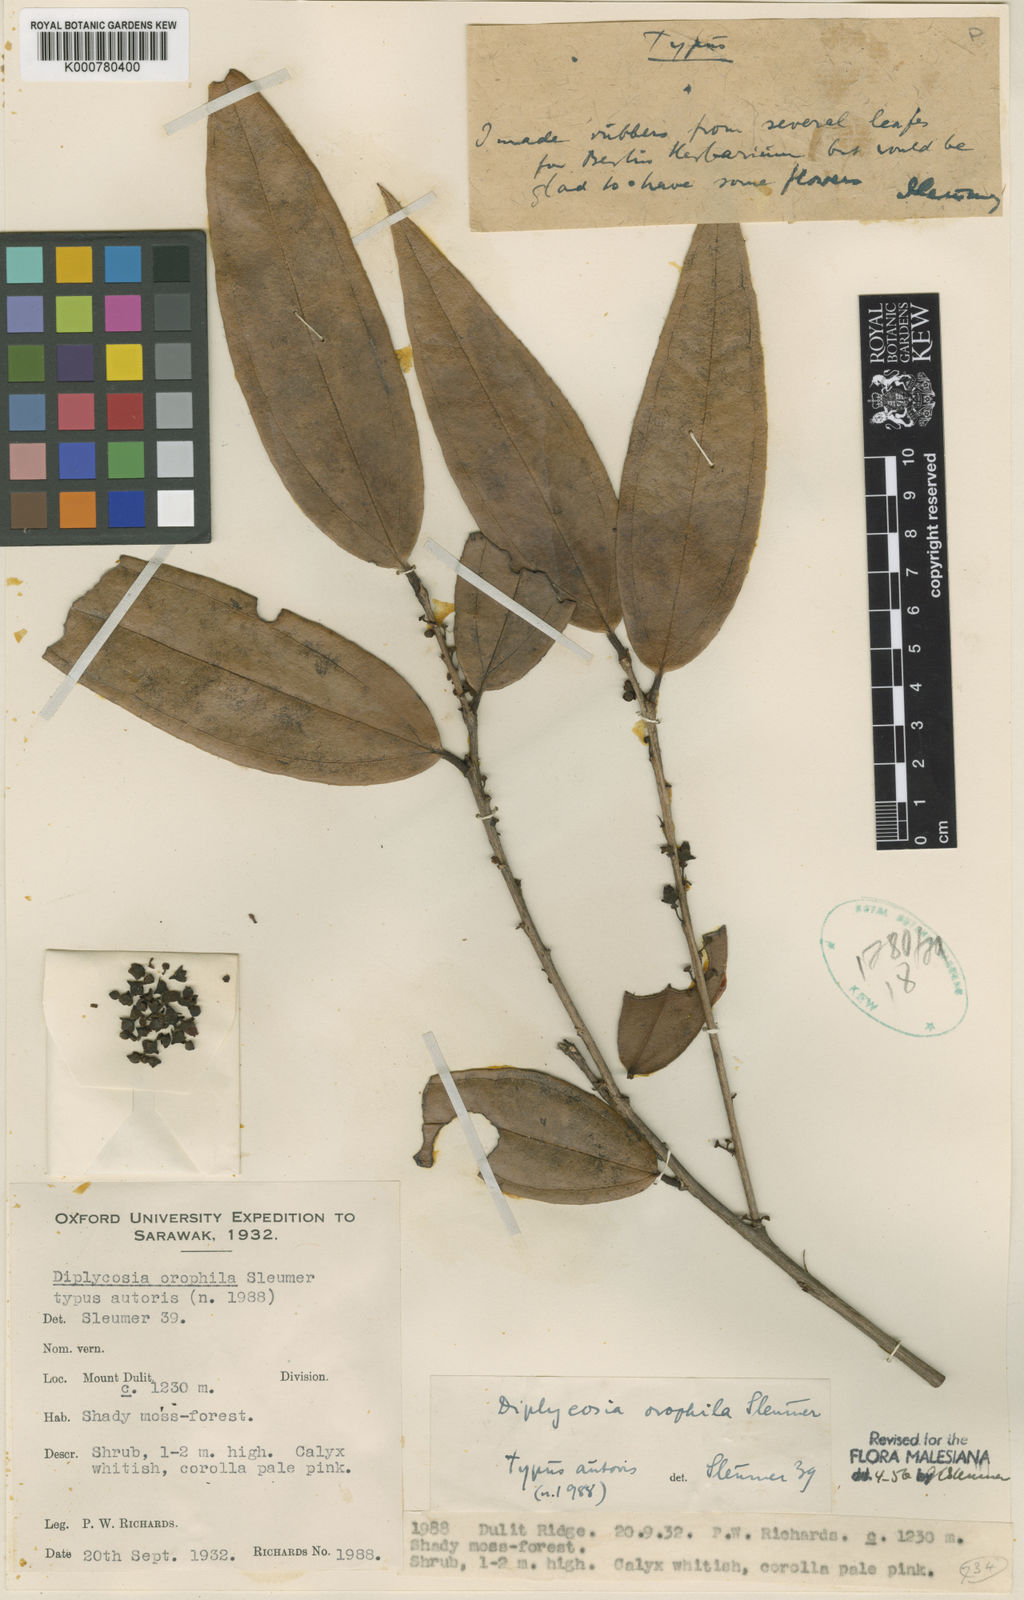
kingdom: Plantae
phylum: Tracheophyta
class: Magnoliopsida
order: Ericales
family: Ericaceae
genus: Gaultheria
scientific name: Gaultheria orophila
